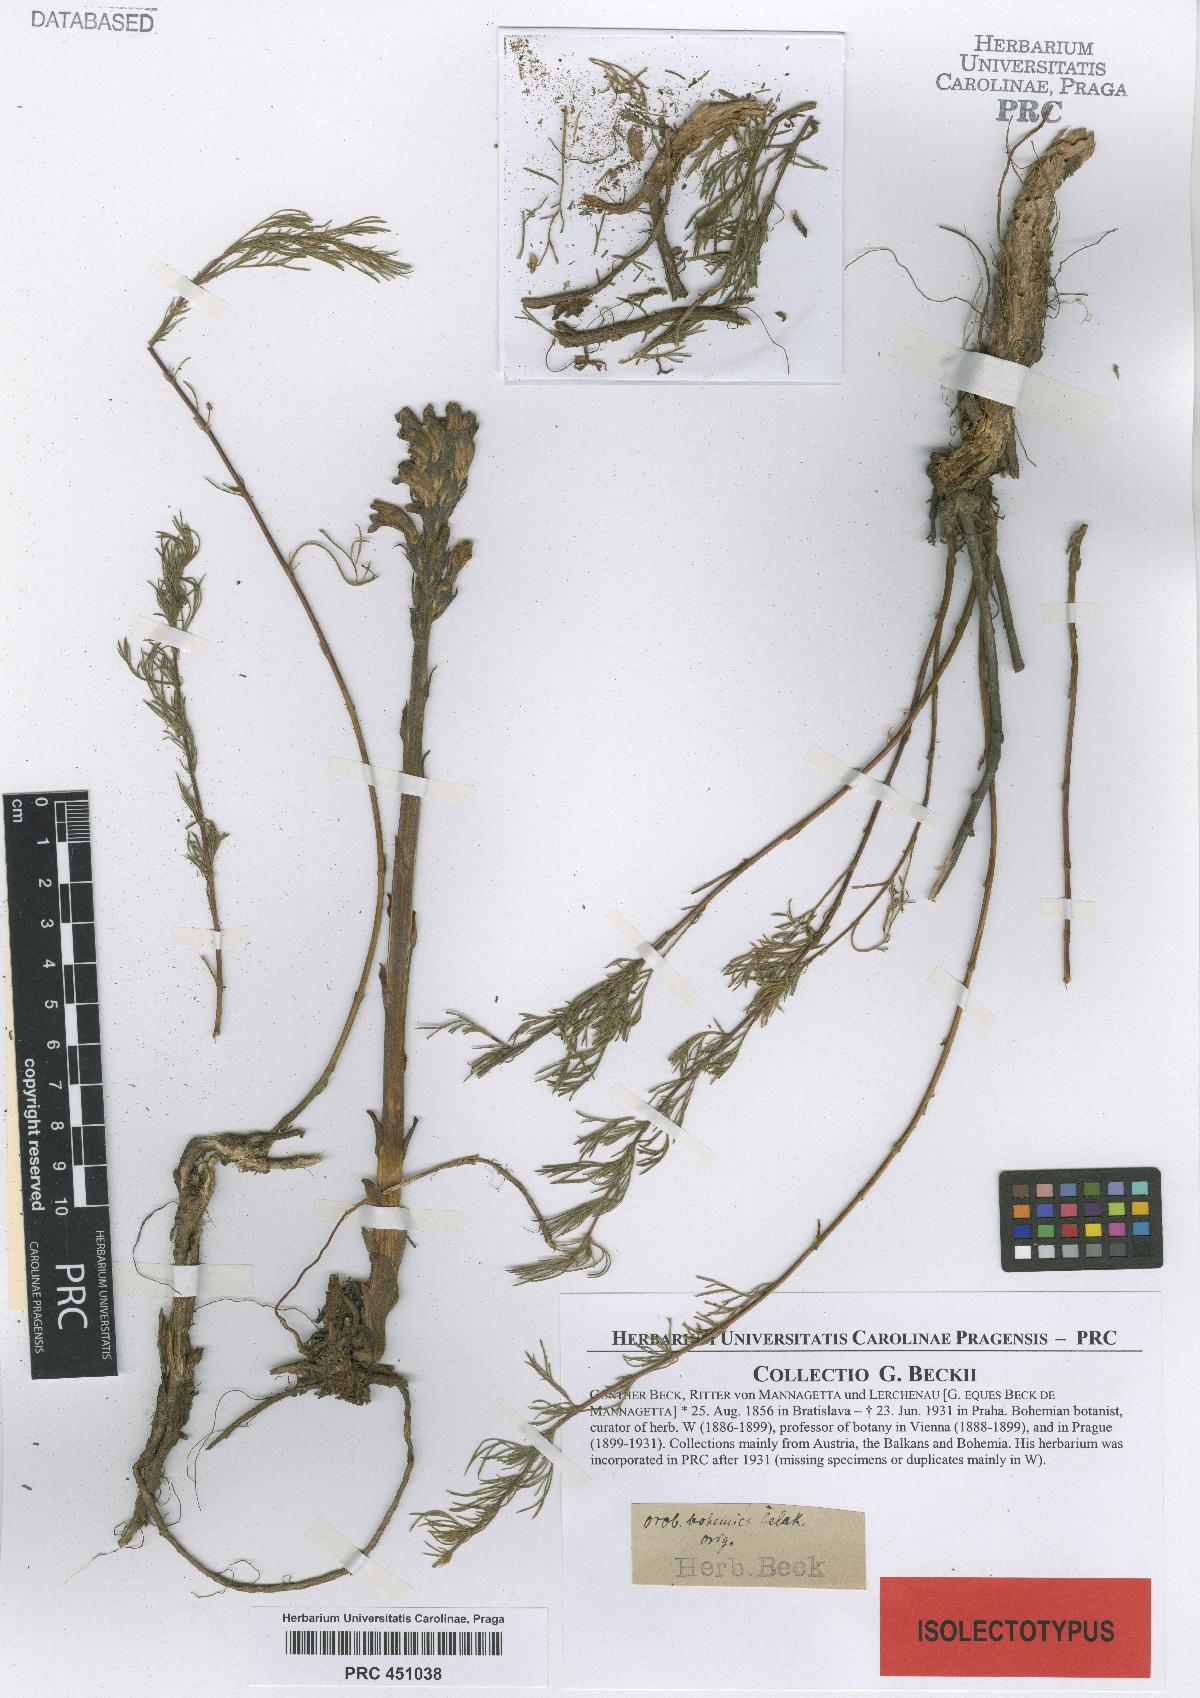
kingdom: Plantae
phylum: Tracheophyta
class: Magnoliopsida
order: Lamiales
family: Orobanchaceae
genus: Phelipanche
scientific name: Phelipanche bohemica
